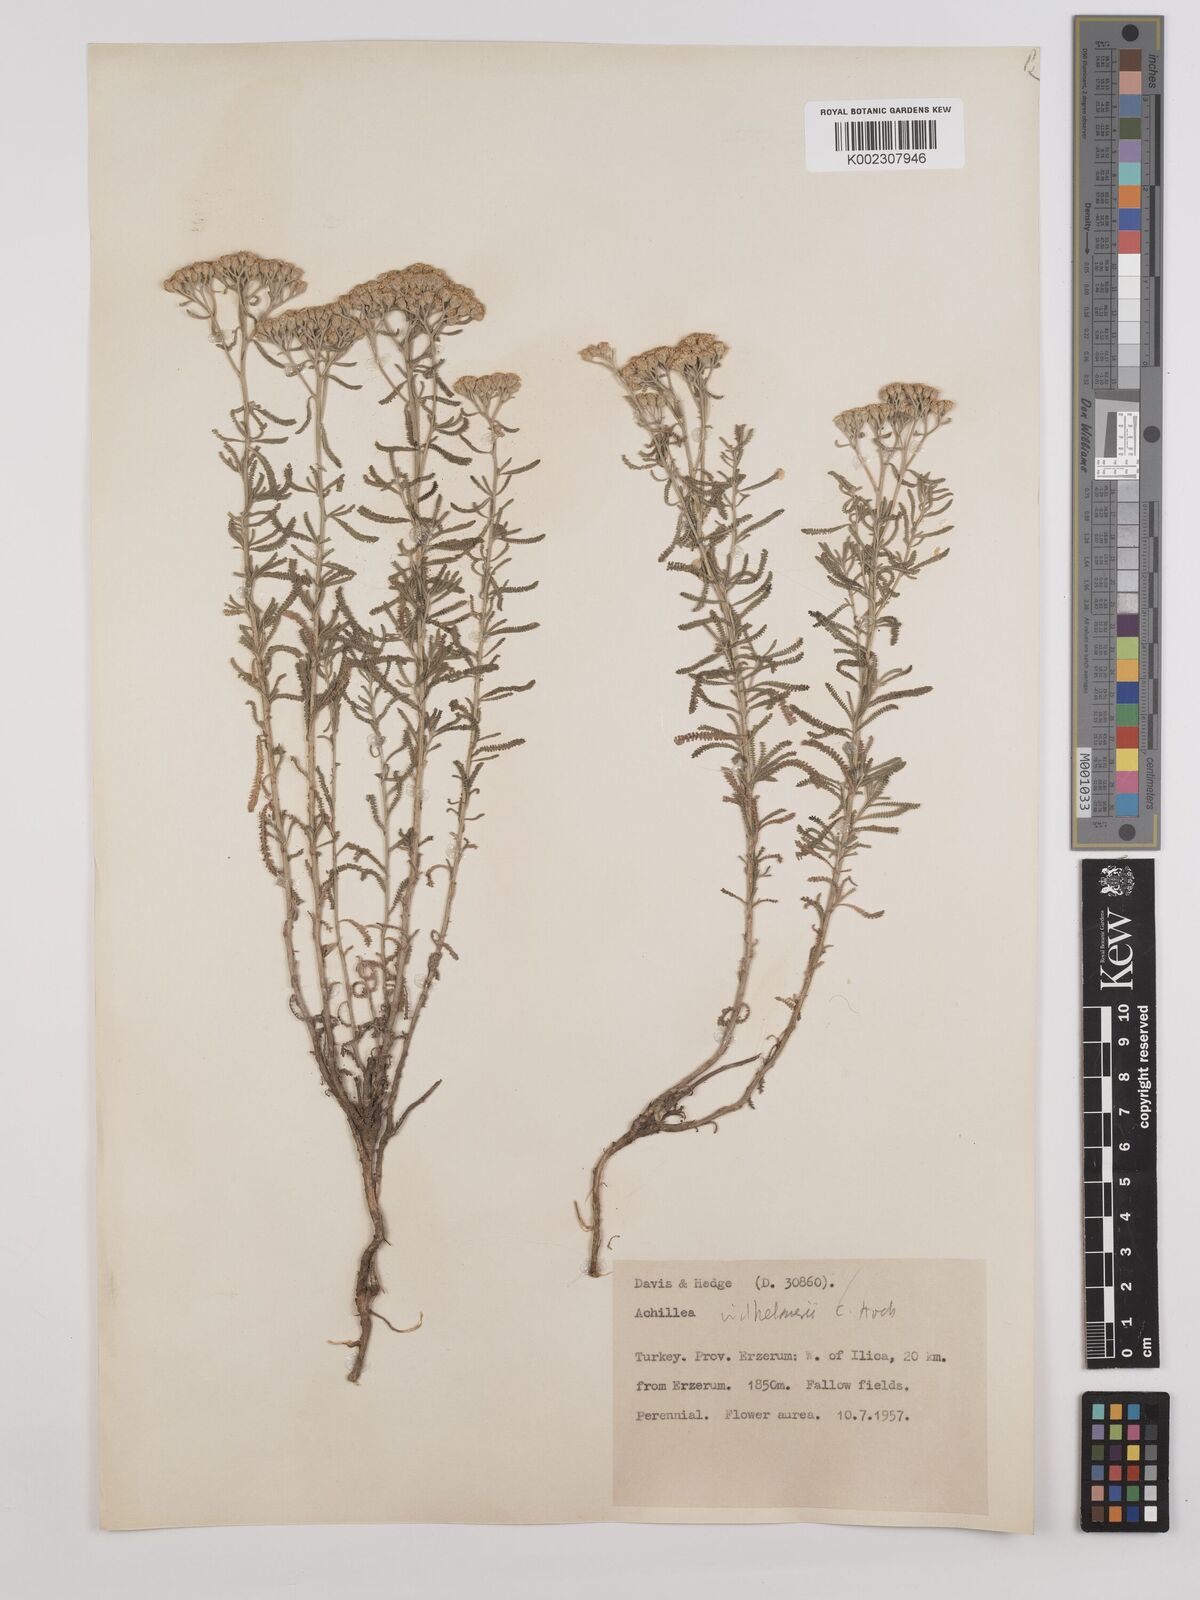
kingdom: Plantae
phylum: Tracheophyta
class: Magnoliopsida
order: Asterales
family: Asteraceae
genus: Achillea
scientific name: Achillea tenuifolia
